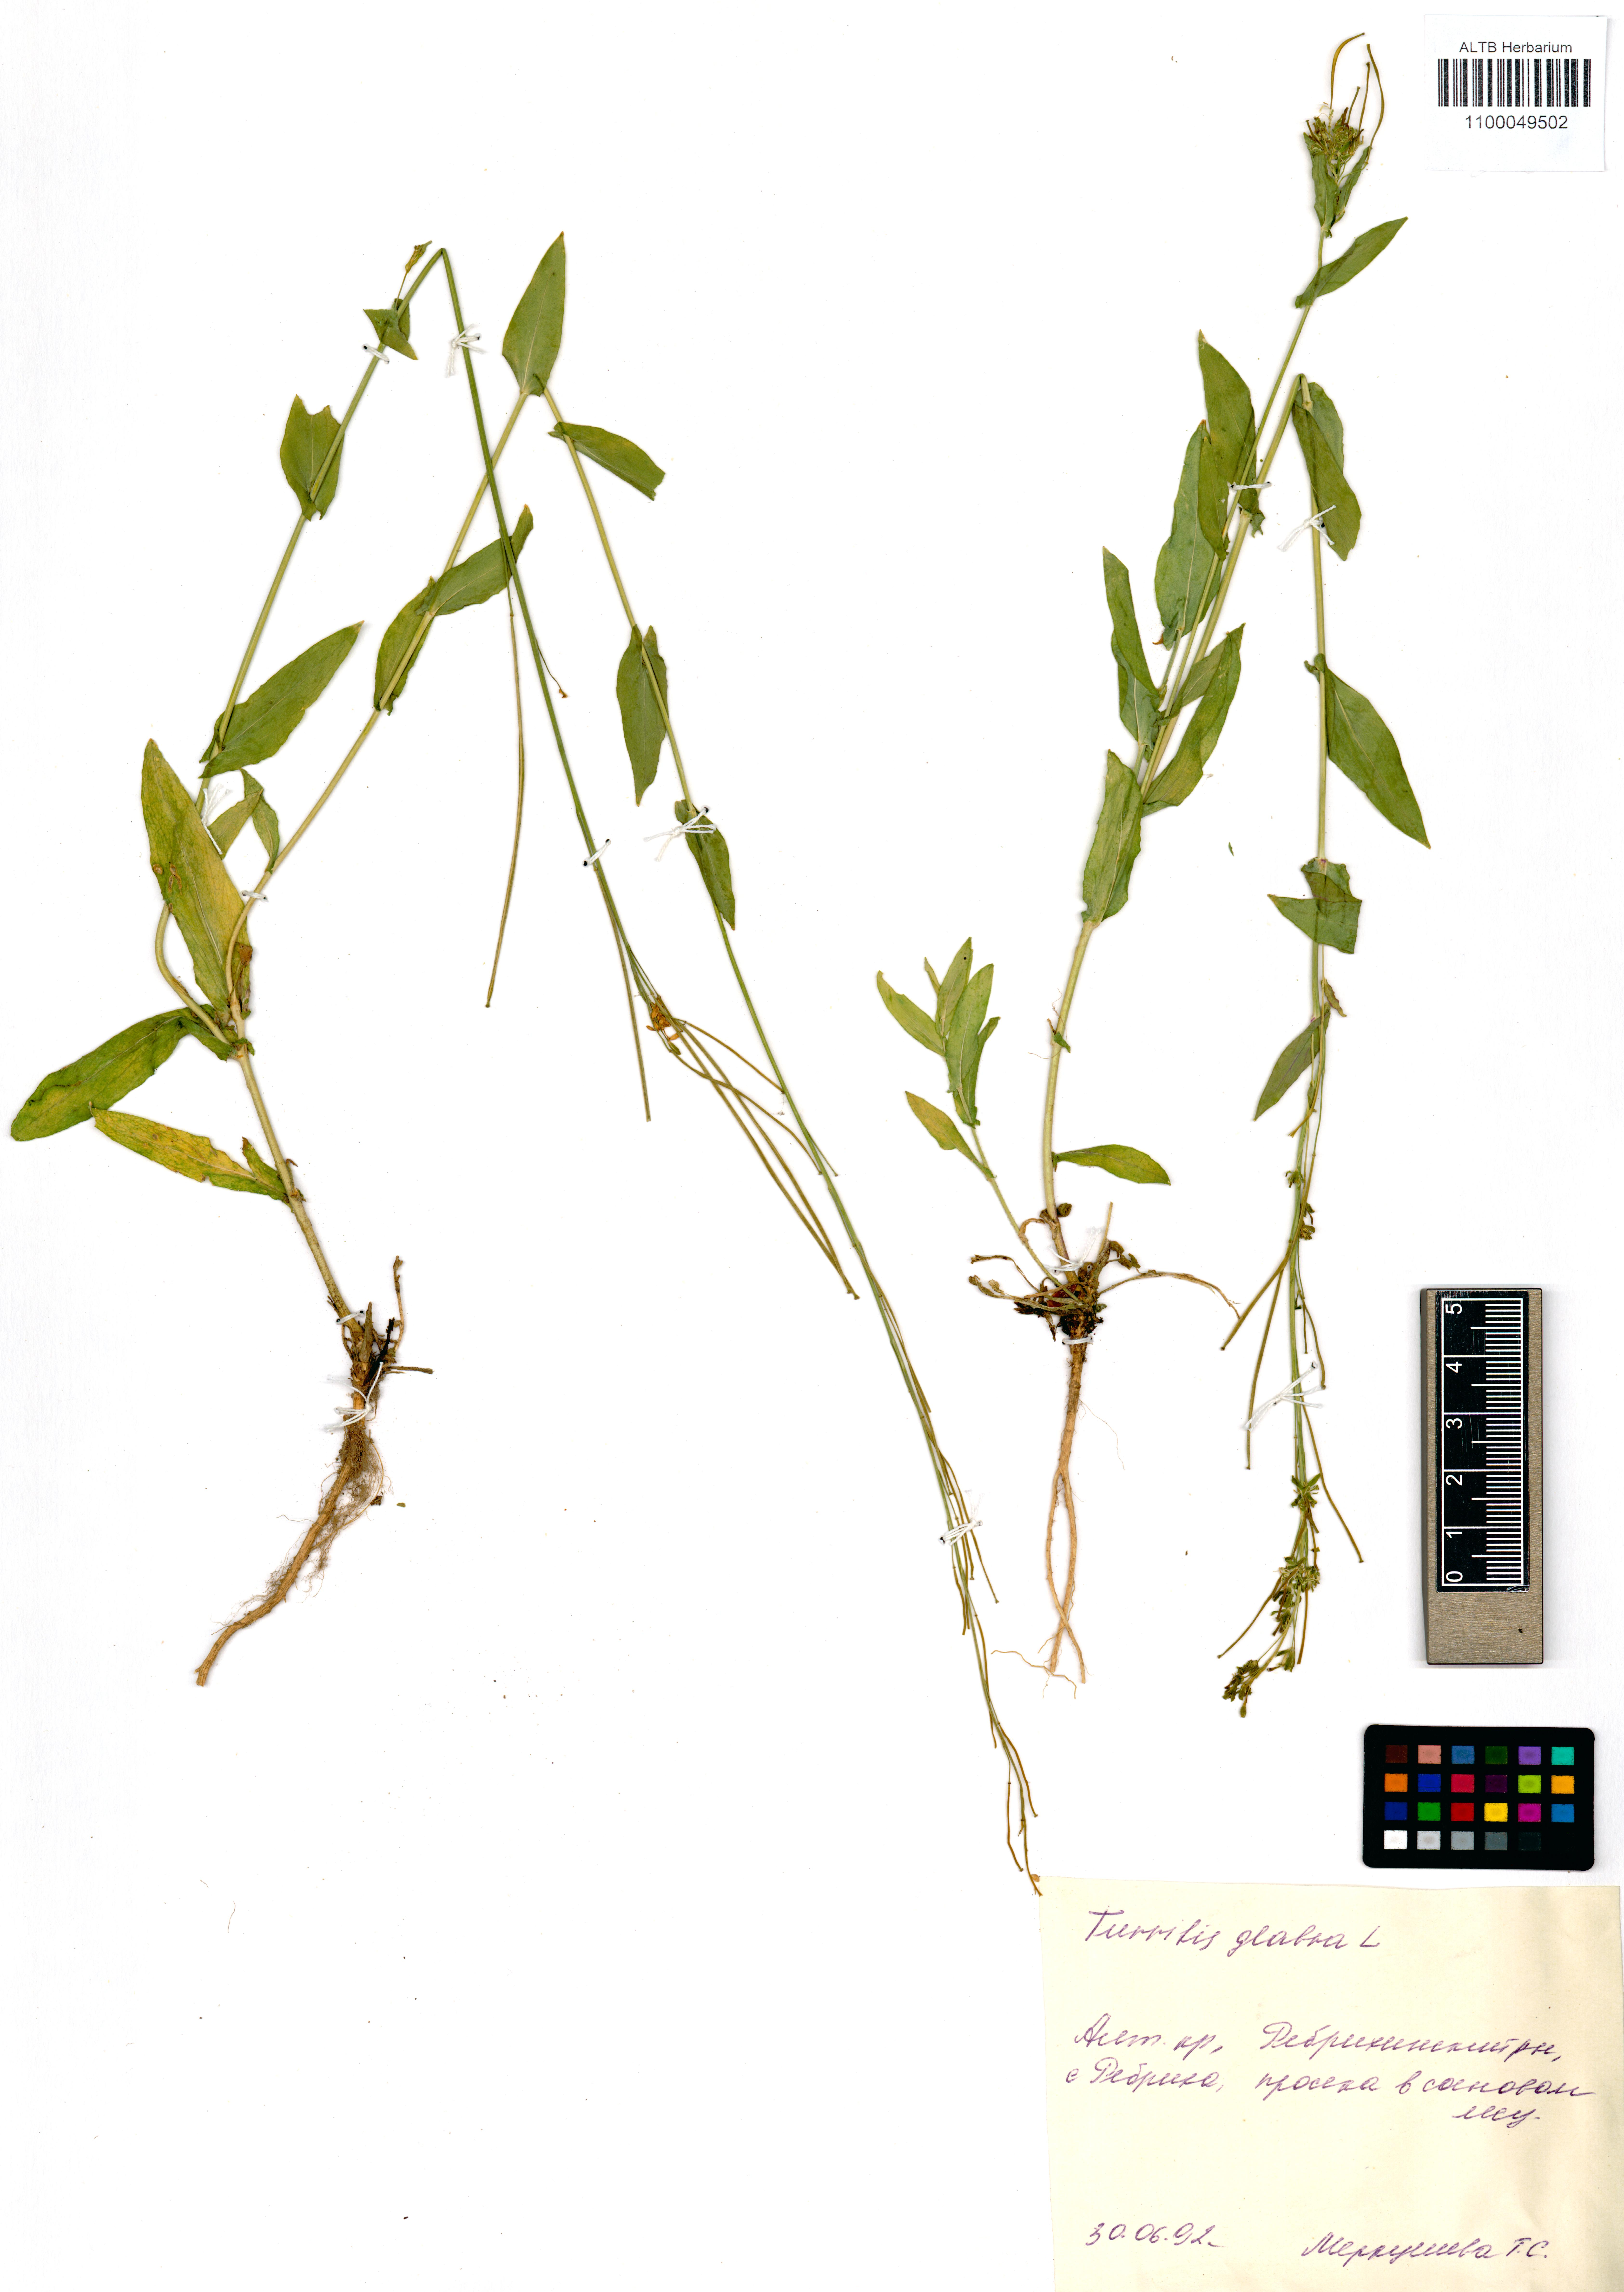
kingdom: Plantae
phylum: Tracheophyta
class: Magnoliopsida
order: Brassicales
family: Brassicaceae
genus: Turritis
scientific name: Turritis glabra
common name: Tower rockcress
